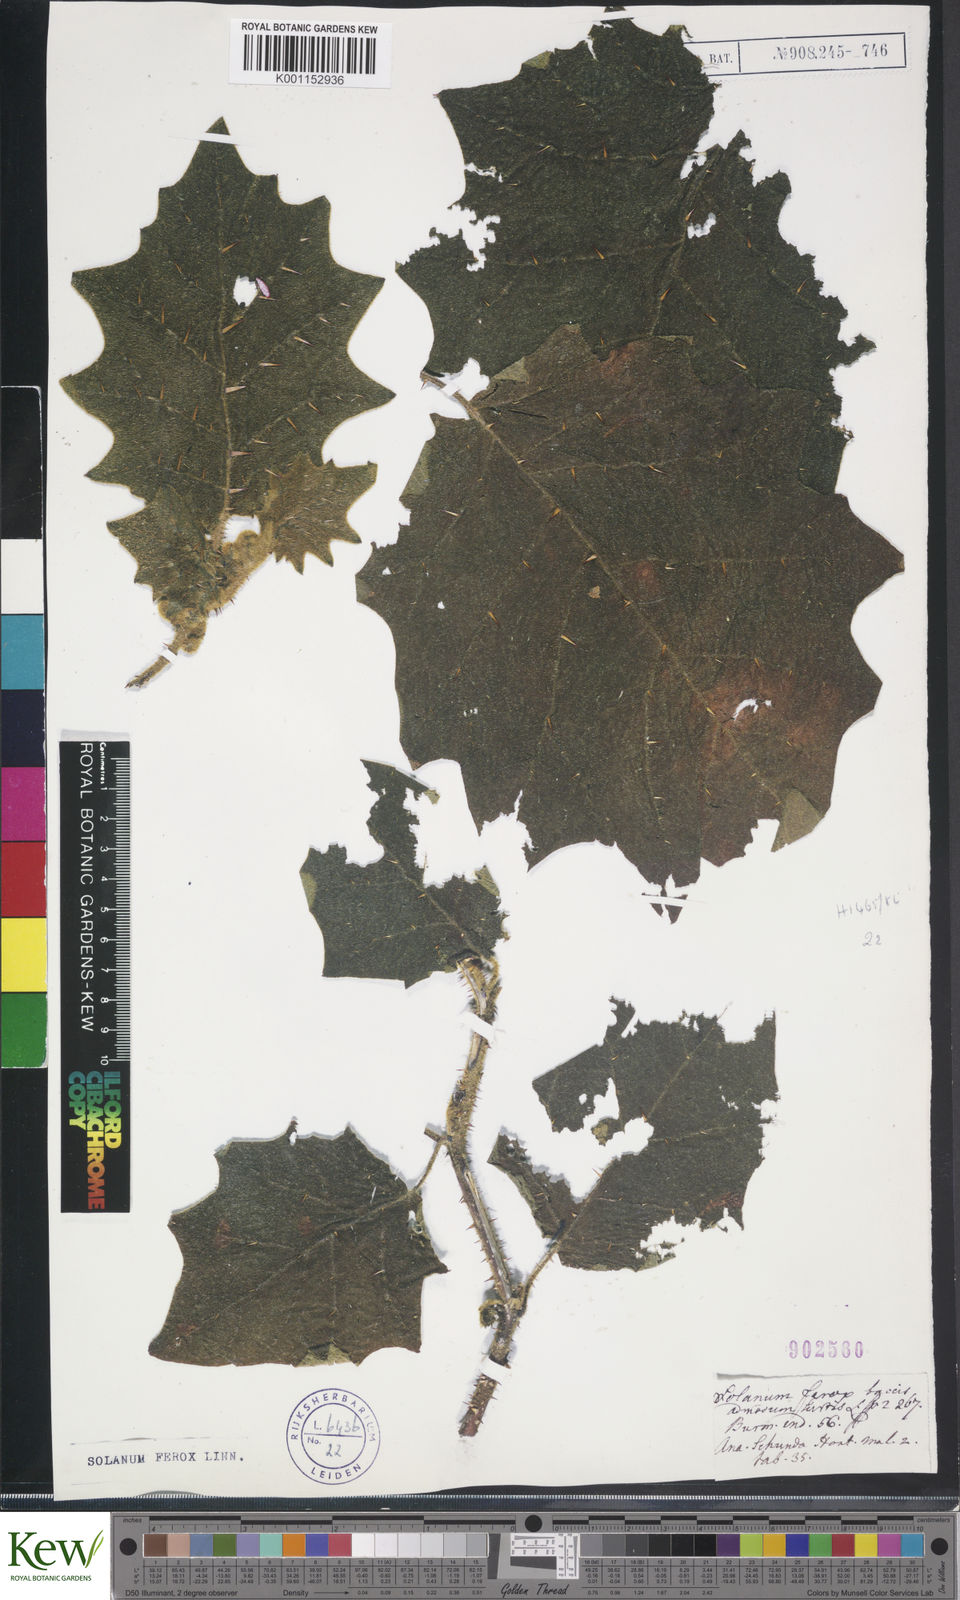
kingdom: Plantae
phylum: Tracheophyta
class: Magnoliopsida
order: Solanales
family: Solanaceae
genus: Solanum
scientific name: Solanum
